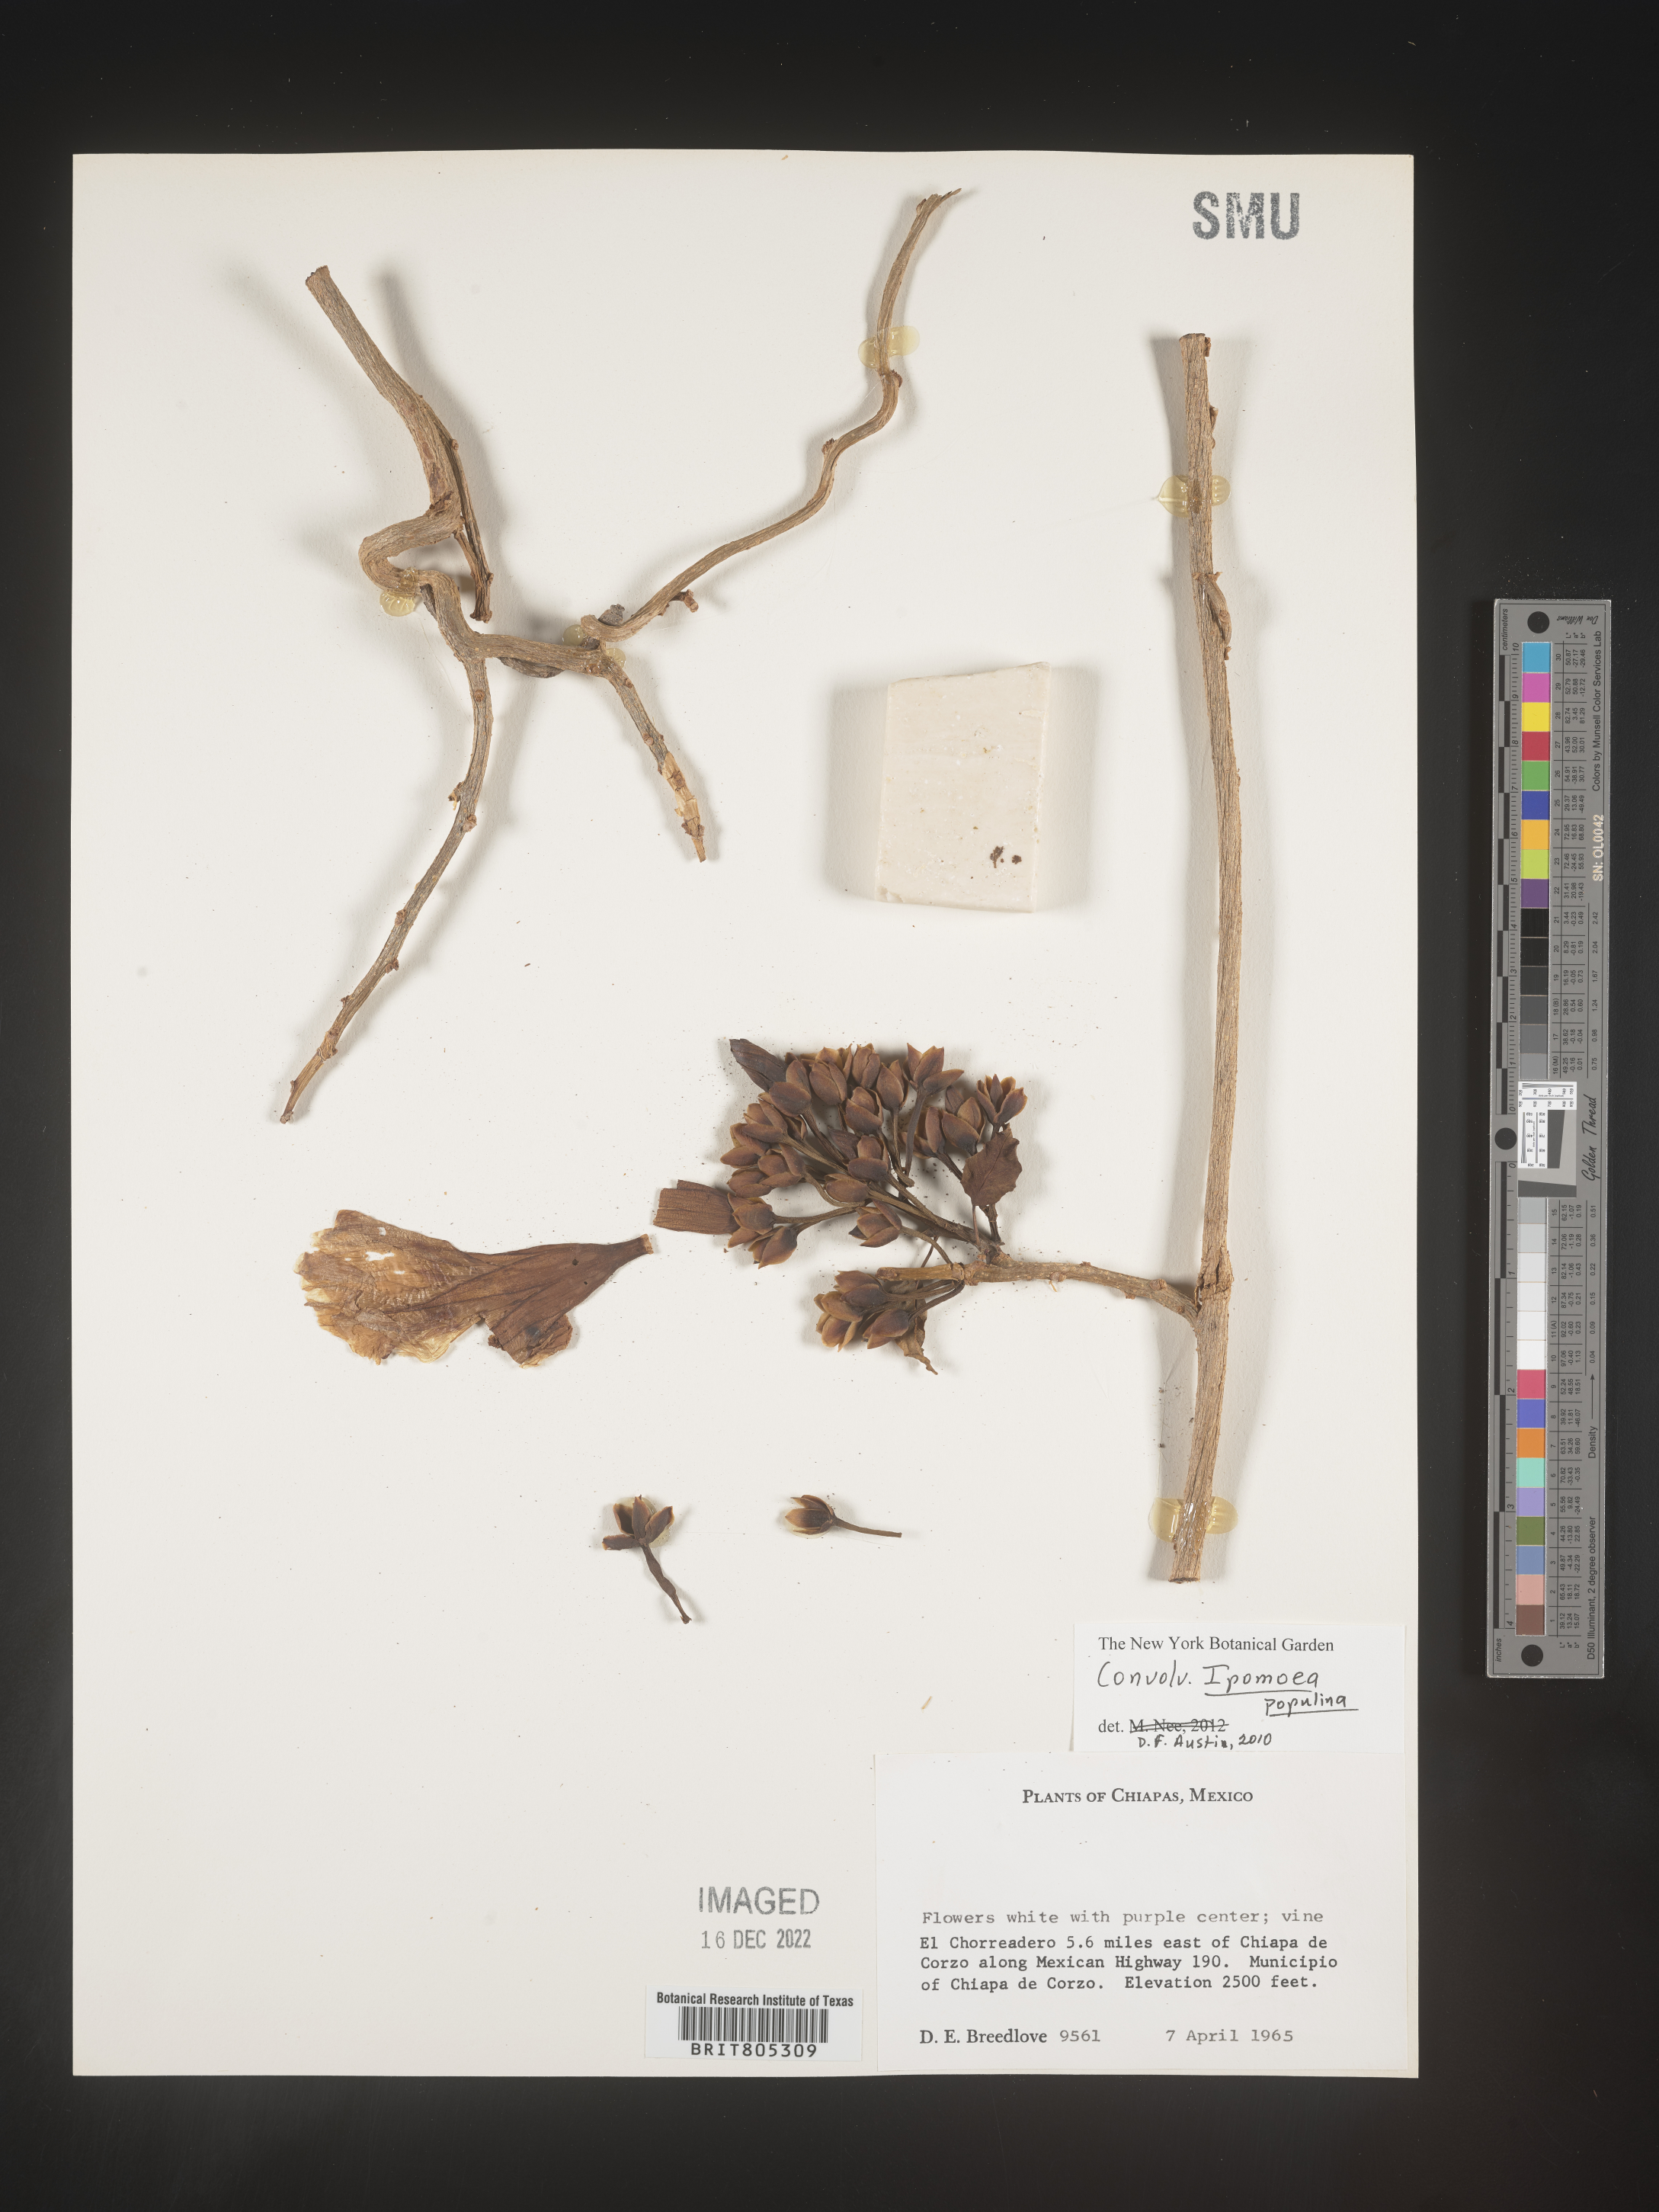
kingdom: Plantae
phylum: Tracheophyta
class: Magnoliopsida
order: Solanales
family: Convolvulaceae
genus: Ipomoea
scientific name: Ipomoea
